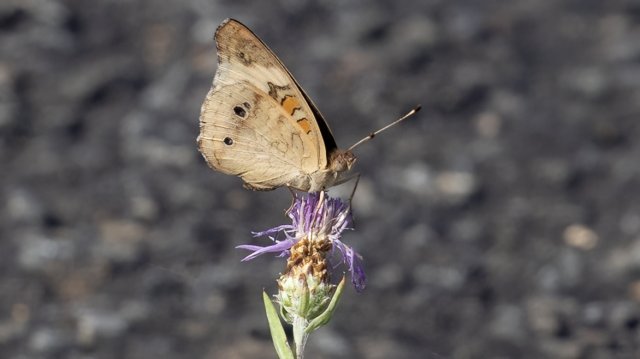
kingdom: Animalia
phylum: Arthropoda
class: Insecta
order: Lepidoptera
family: Nymphalidae
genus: Junonia
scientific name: Junonia coenia
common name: Common Buckeye
